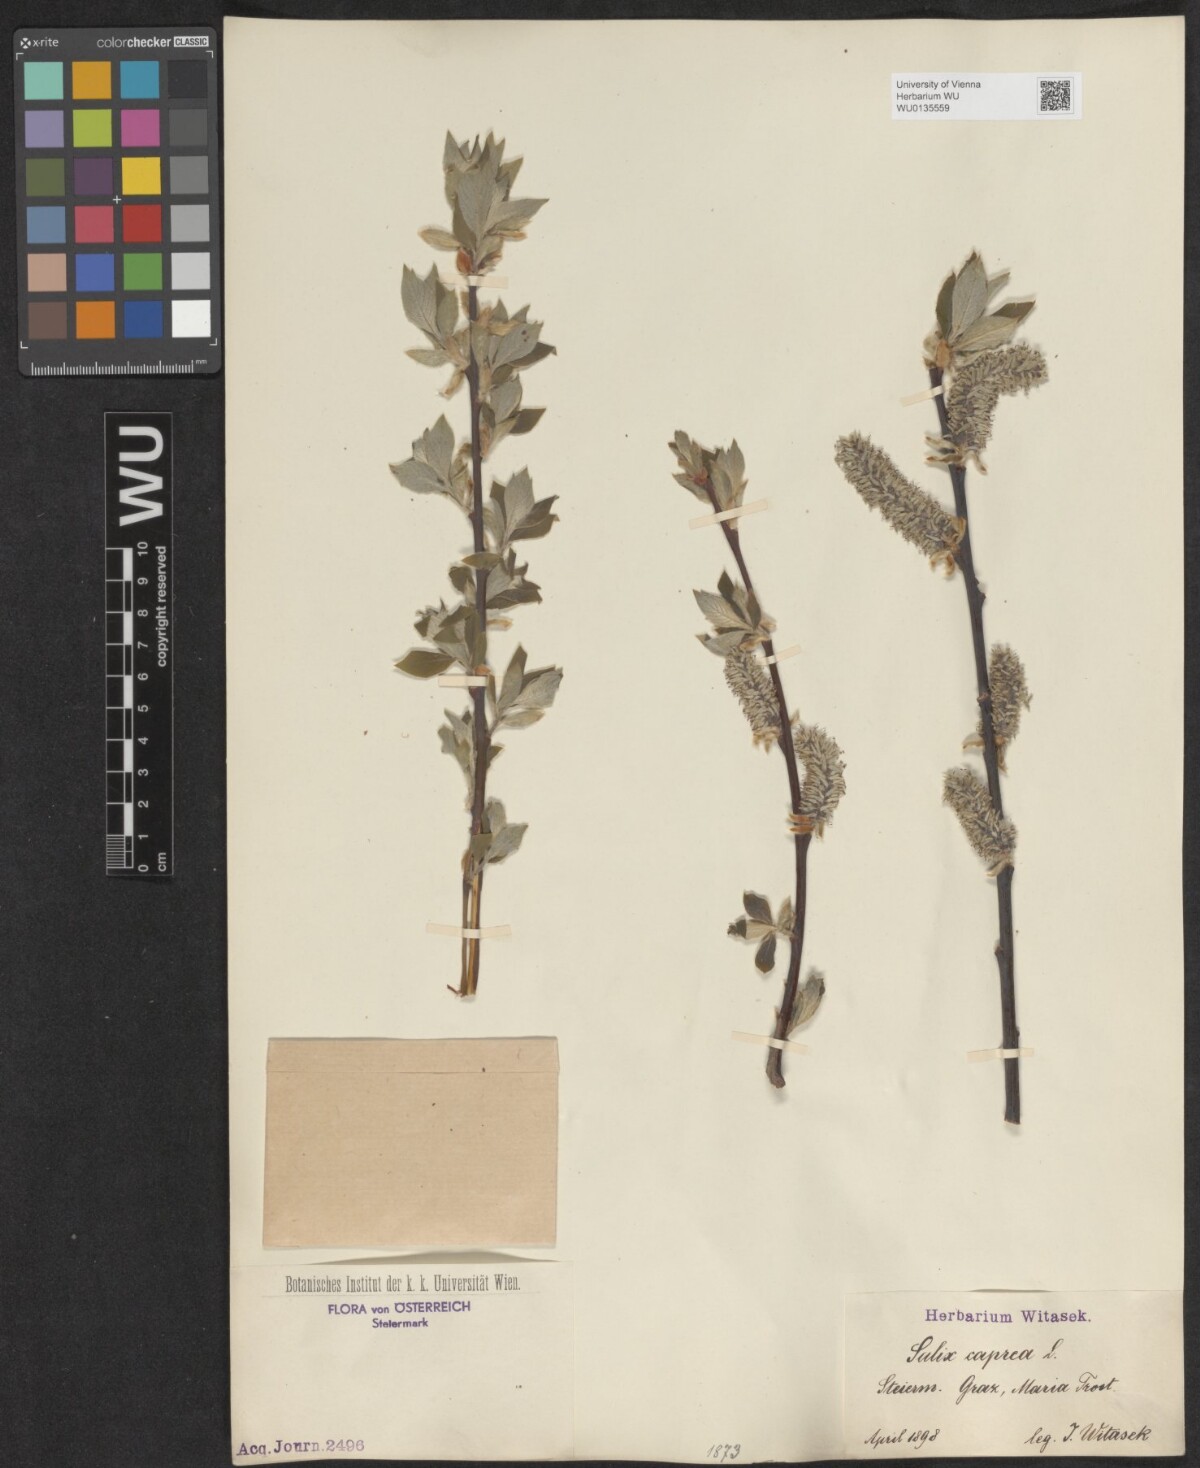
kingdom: Plantae
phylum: Tracheophyta
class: Magnoliopsida
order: Malpighiales
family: Salicaceae
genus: Salix
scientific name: Salix caprea
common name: Goat willow
